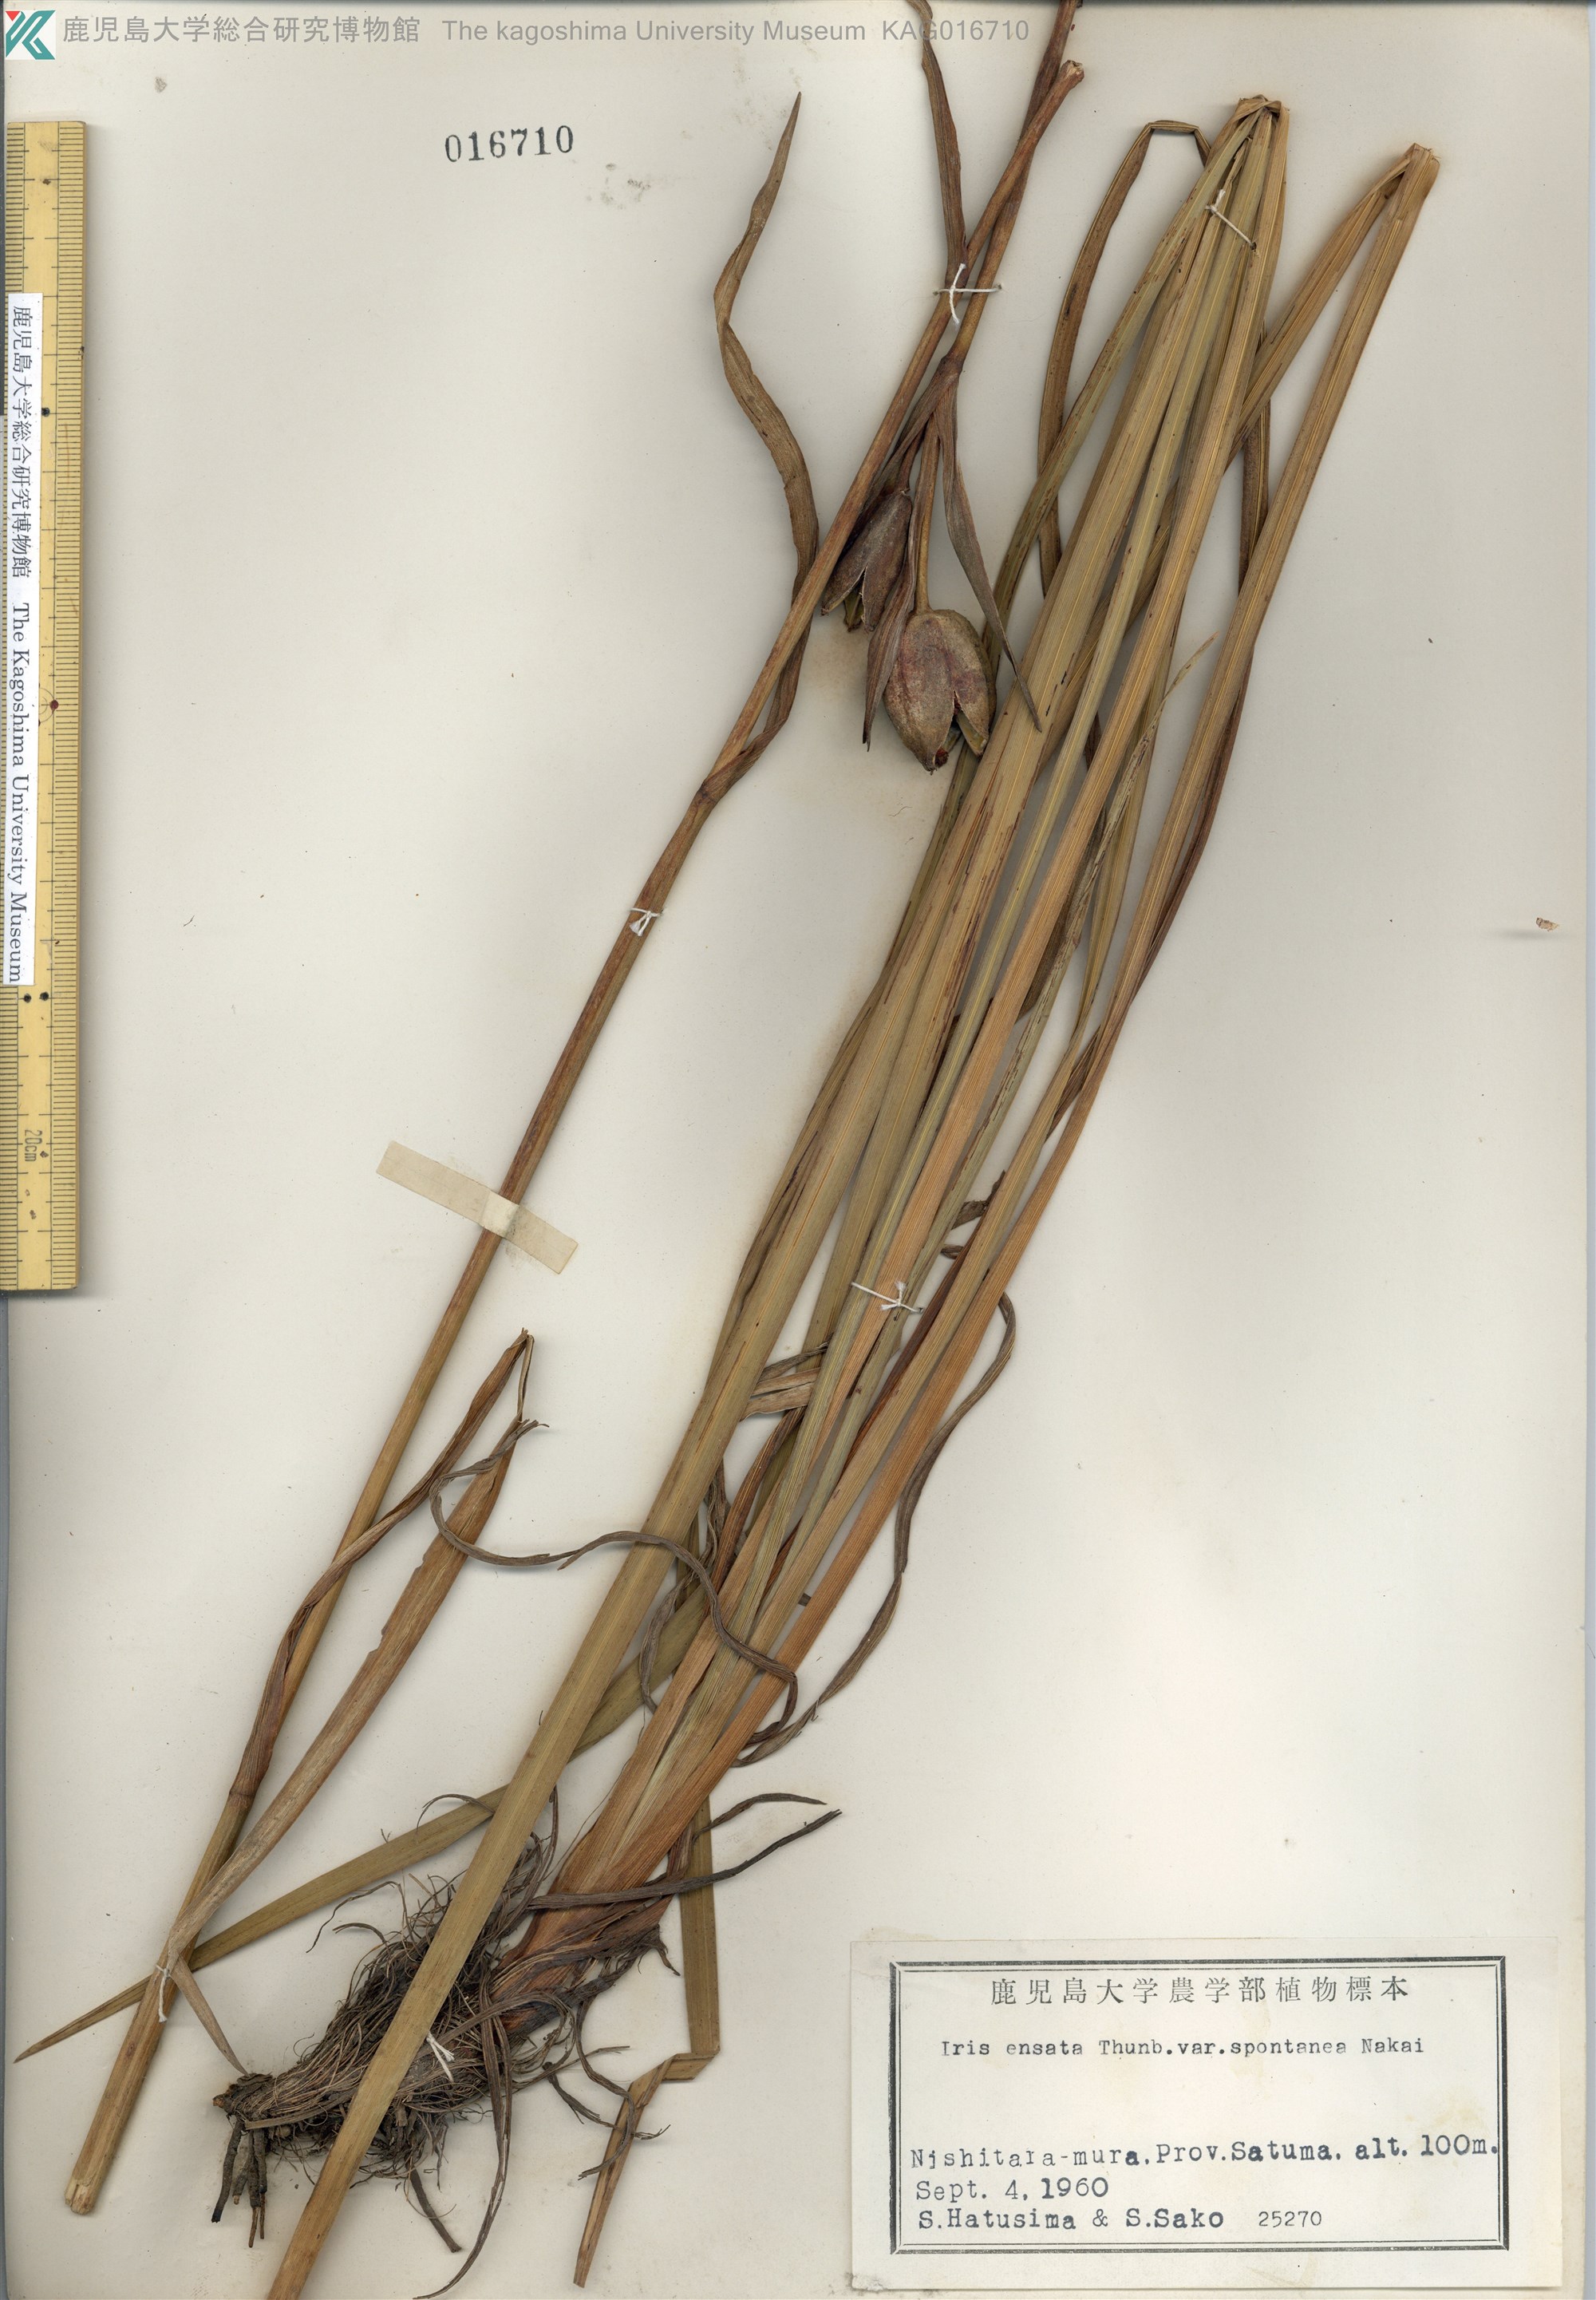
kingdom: Plantae
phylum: Tracheophyta
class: Liliopsida
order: Asparagales
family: Iridaceae
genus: Iris
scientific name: Iris ensata
